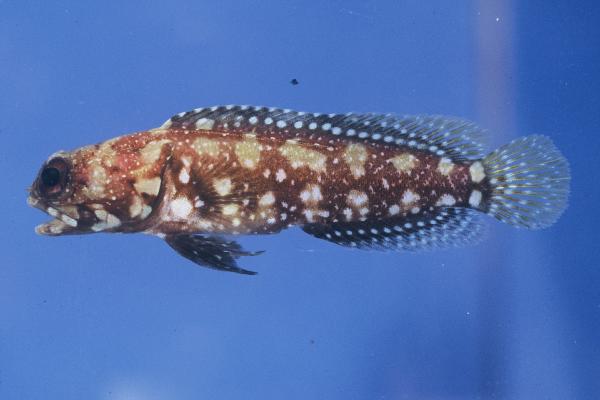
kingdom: Animalia
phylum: Chordata
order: Perciformes
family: Opistognathidae
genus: Opistognathus
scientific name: Opistognathus afer
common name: African jawfish
